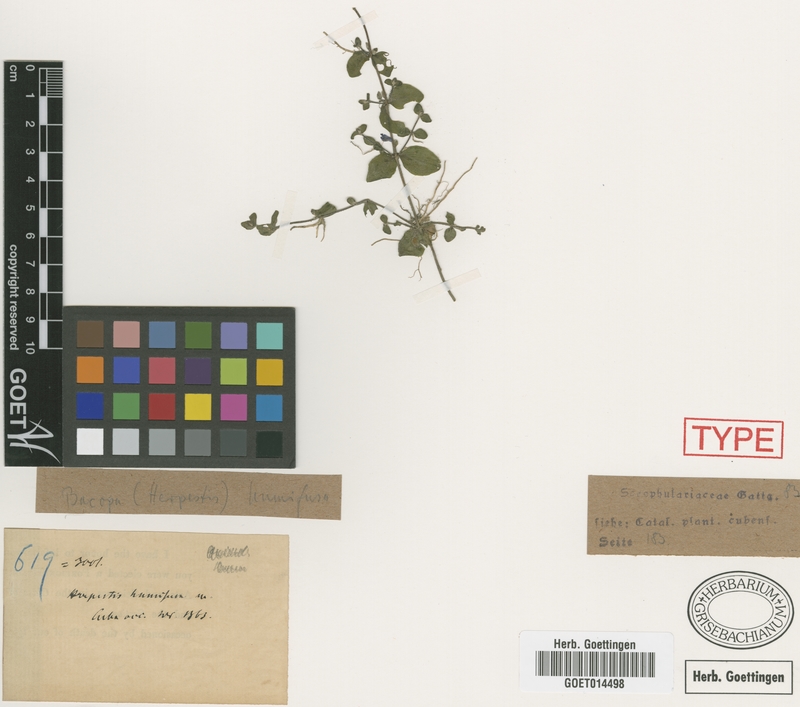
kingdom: Plantae
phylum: Tracheophyta
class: Magnoliopsida
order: Lamiales
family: Plantaginaceae
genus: Bacopa
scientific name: Bacopa humifusa
